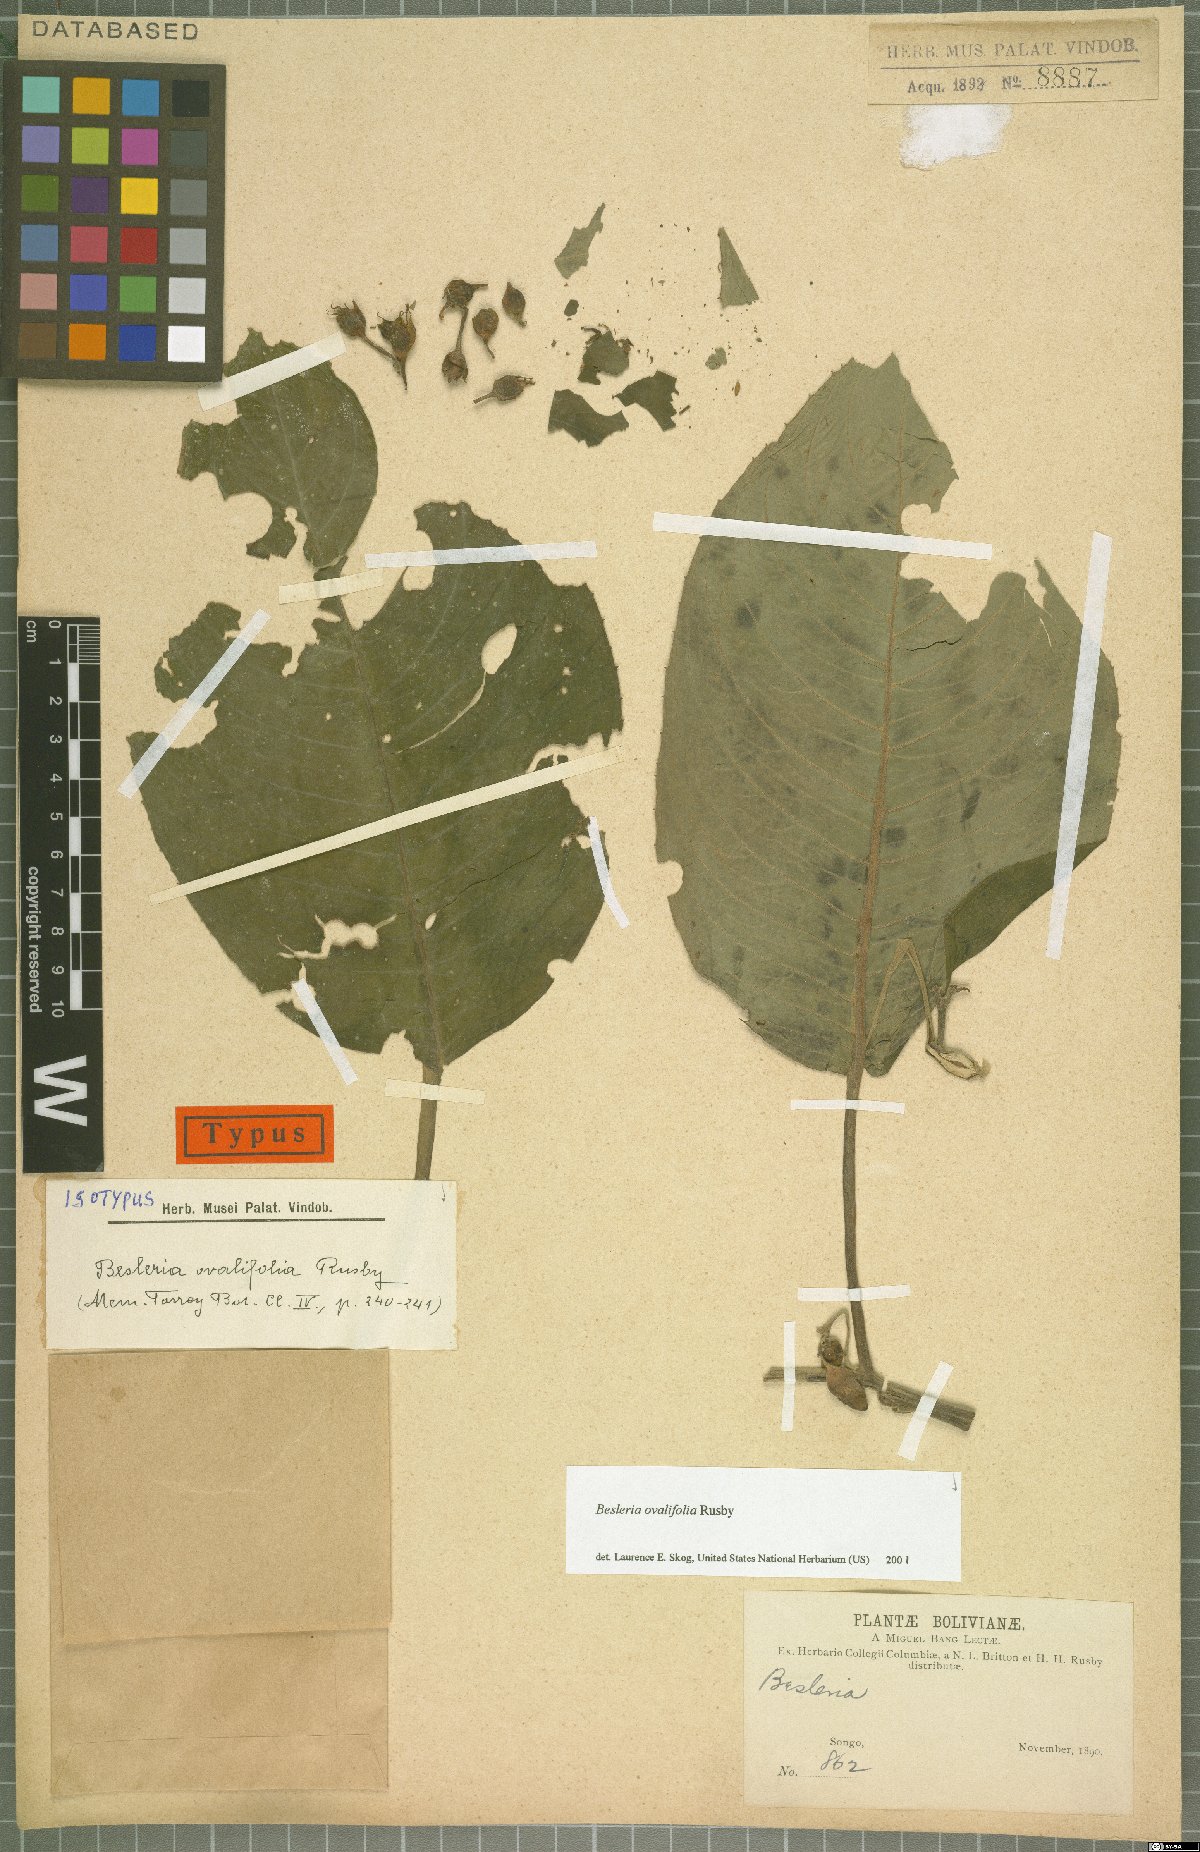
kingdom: Plantae
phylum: Tracheophyta
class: Magnoliopsida
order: Lamiales
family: Gesneriaceae
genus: Besleria
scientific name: Besleria ovalifolia
